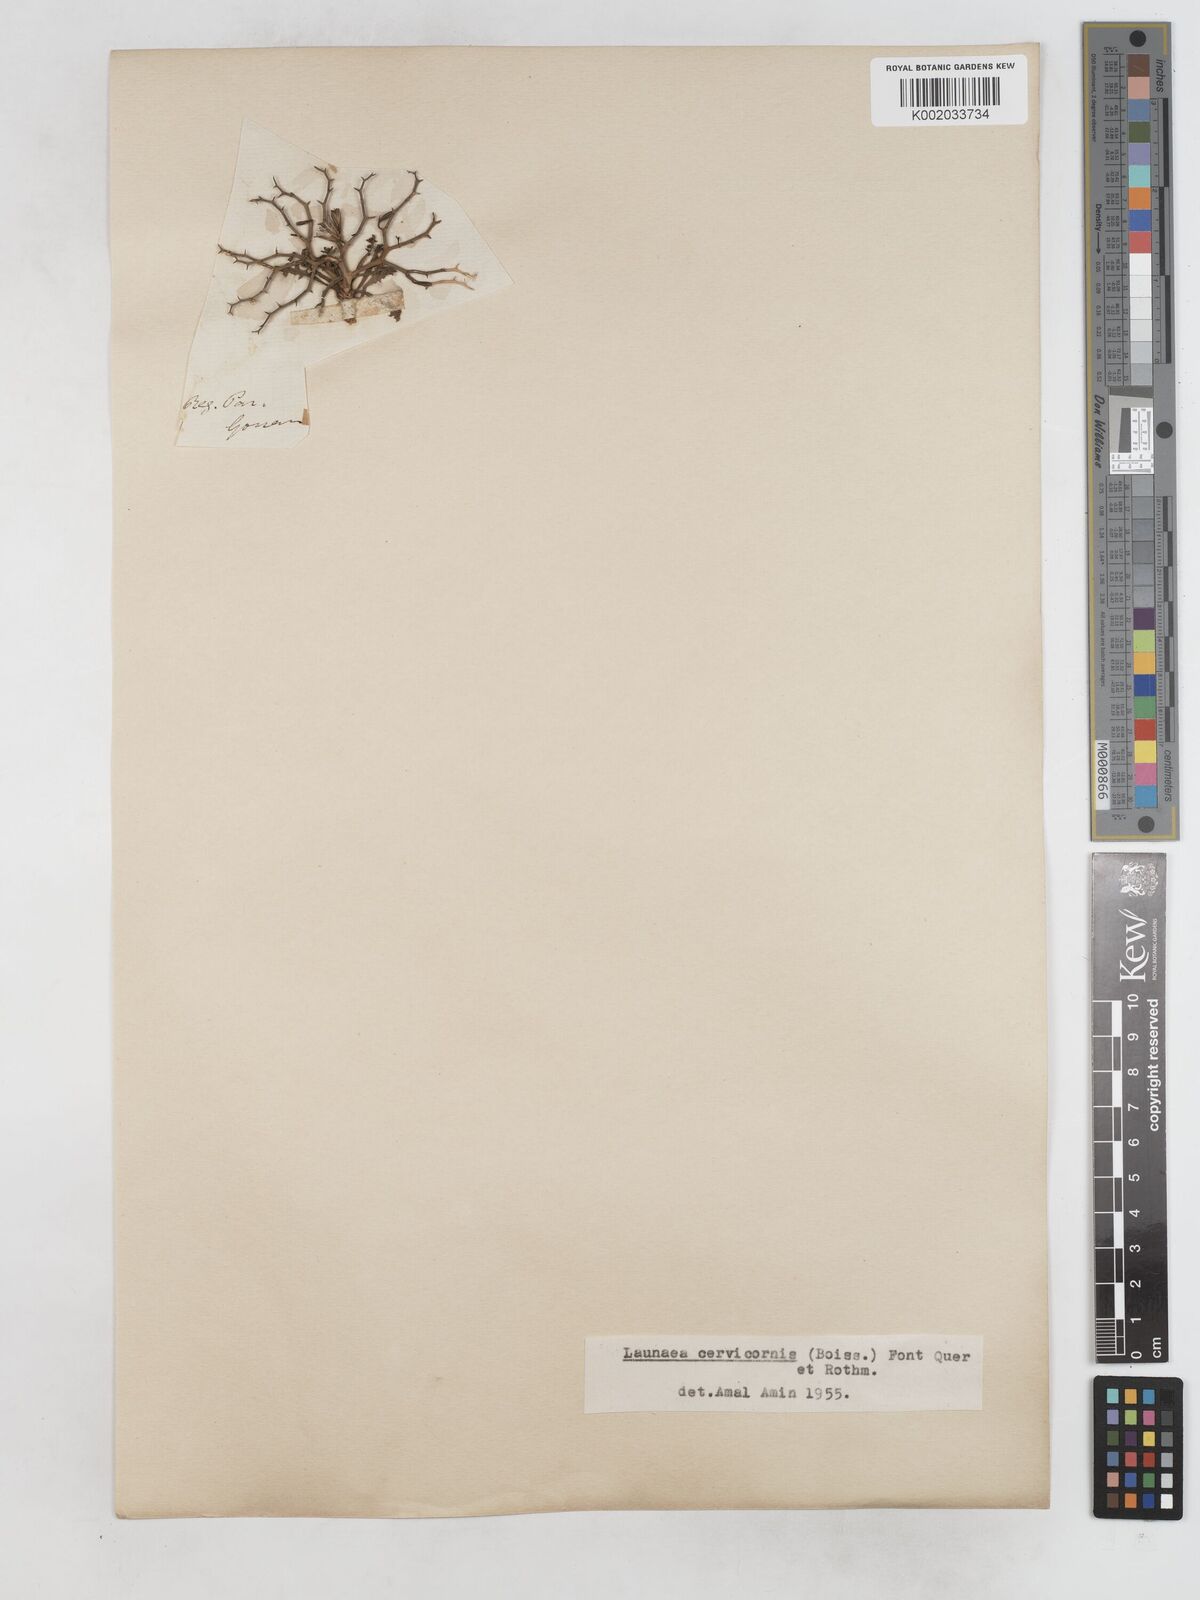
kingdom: Plantae
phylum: Tracheophyta
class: Magnoliopsida
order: Asterales
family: Asteraceae
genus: Launaea
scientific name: Launaea cervicornis
